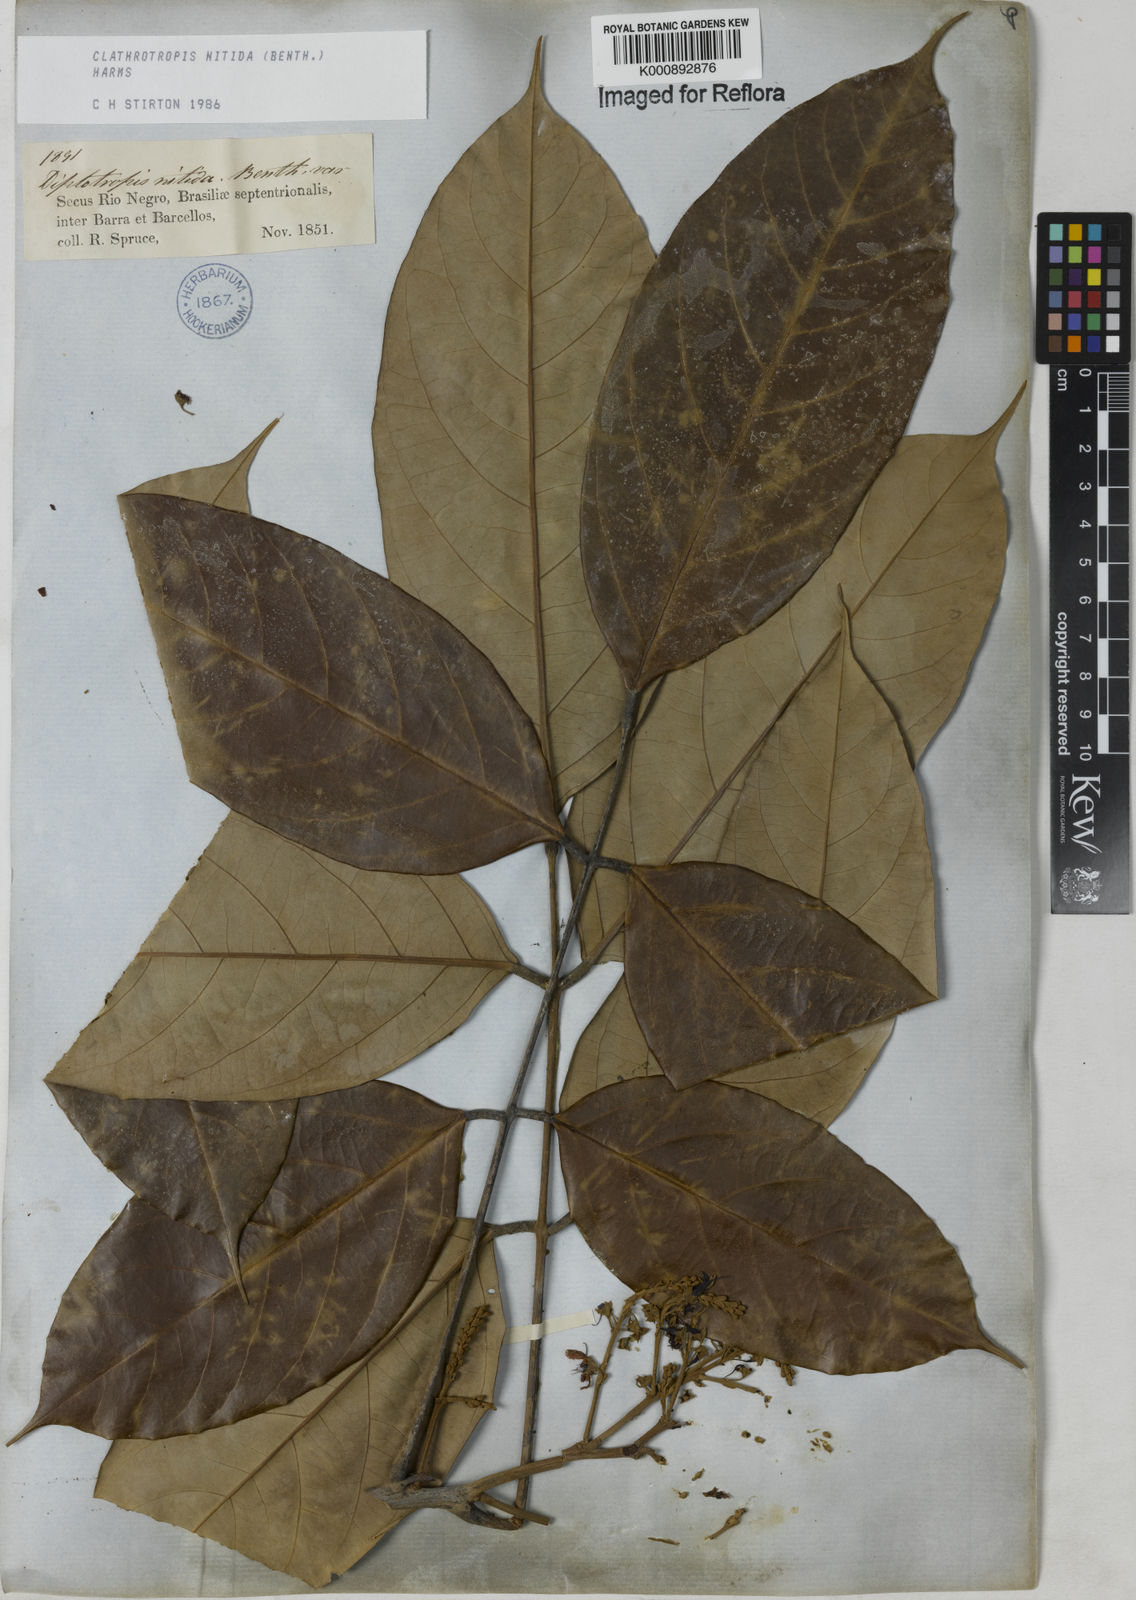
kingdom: Plantae
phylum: Tracheophyta
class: Magnoliopsida
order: Fabales
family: Fabaceae
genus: Clathrotropis
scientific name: Clathrotropis nitida
